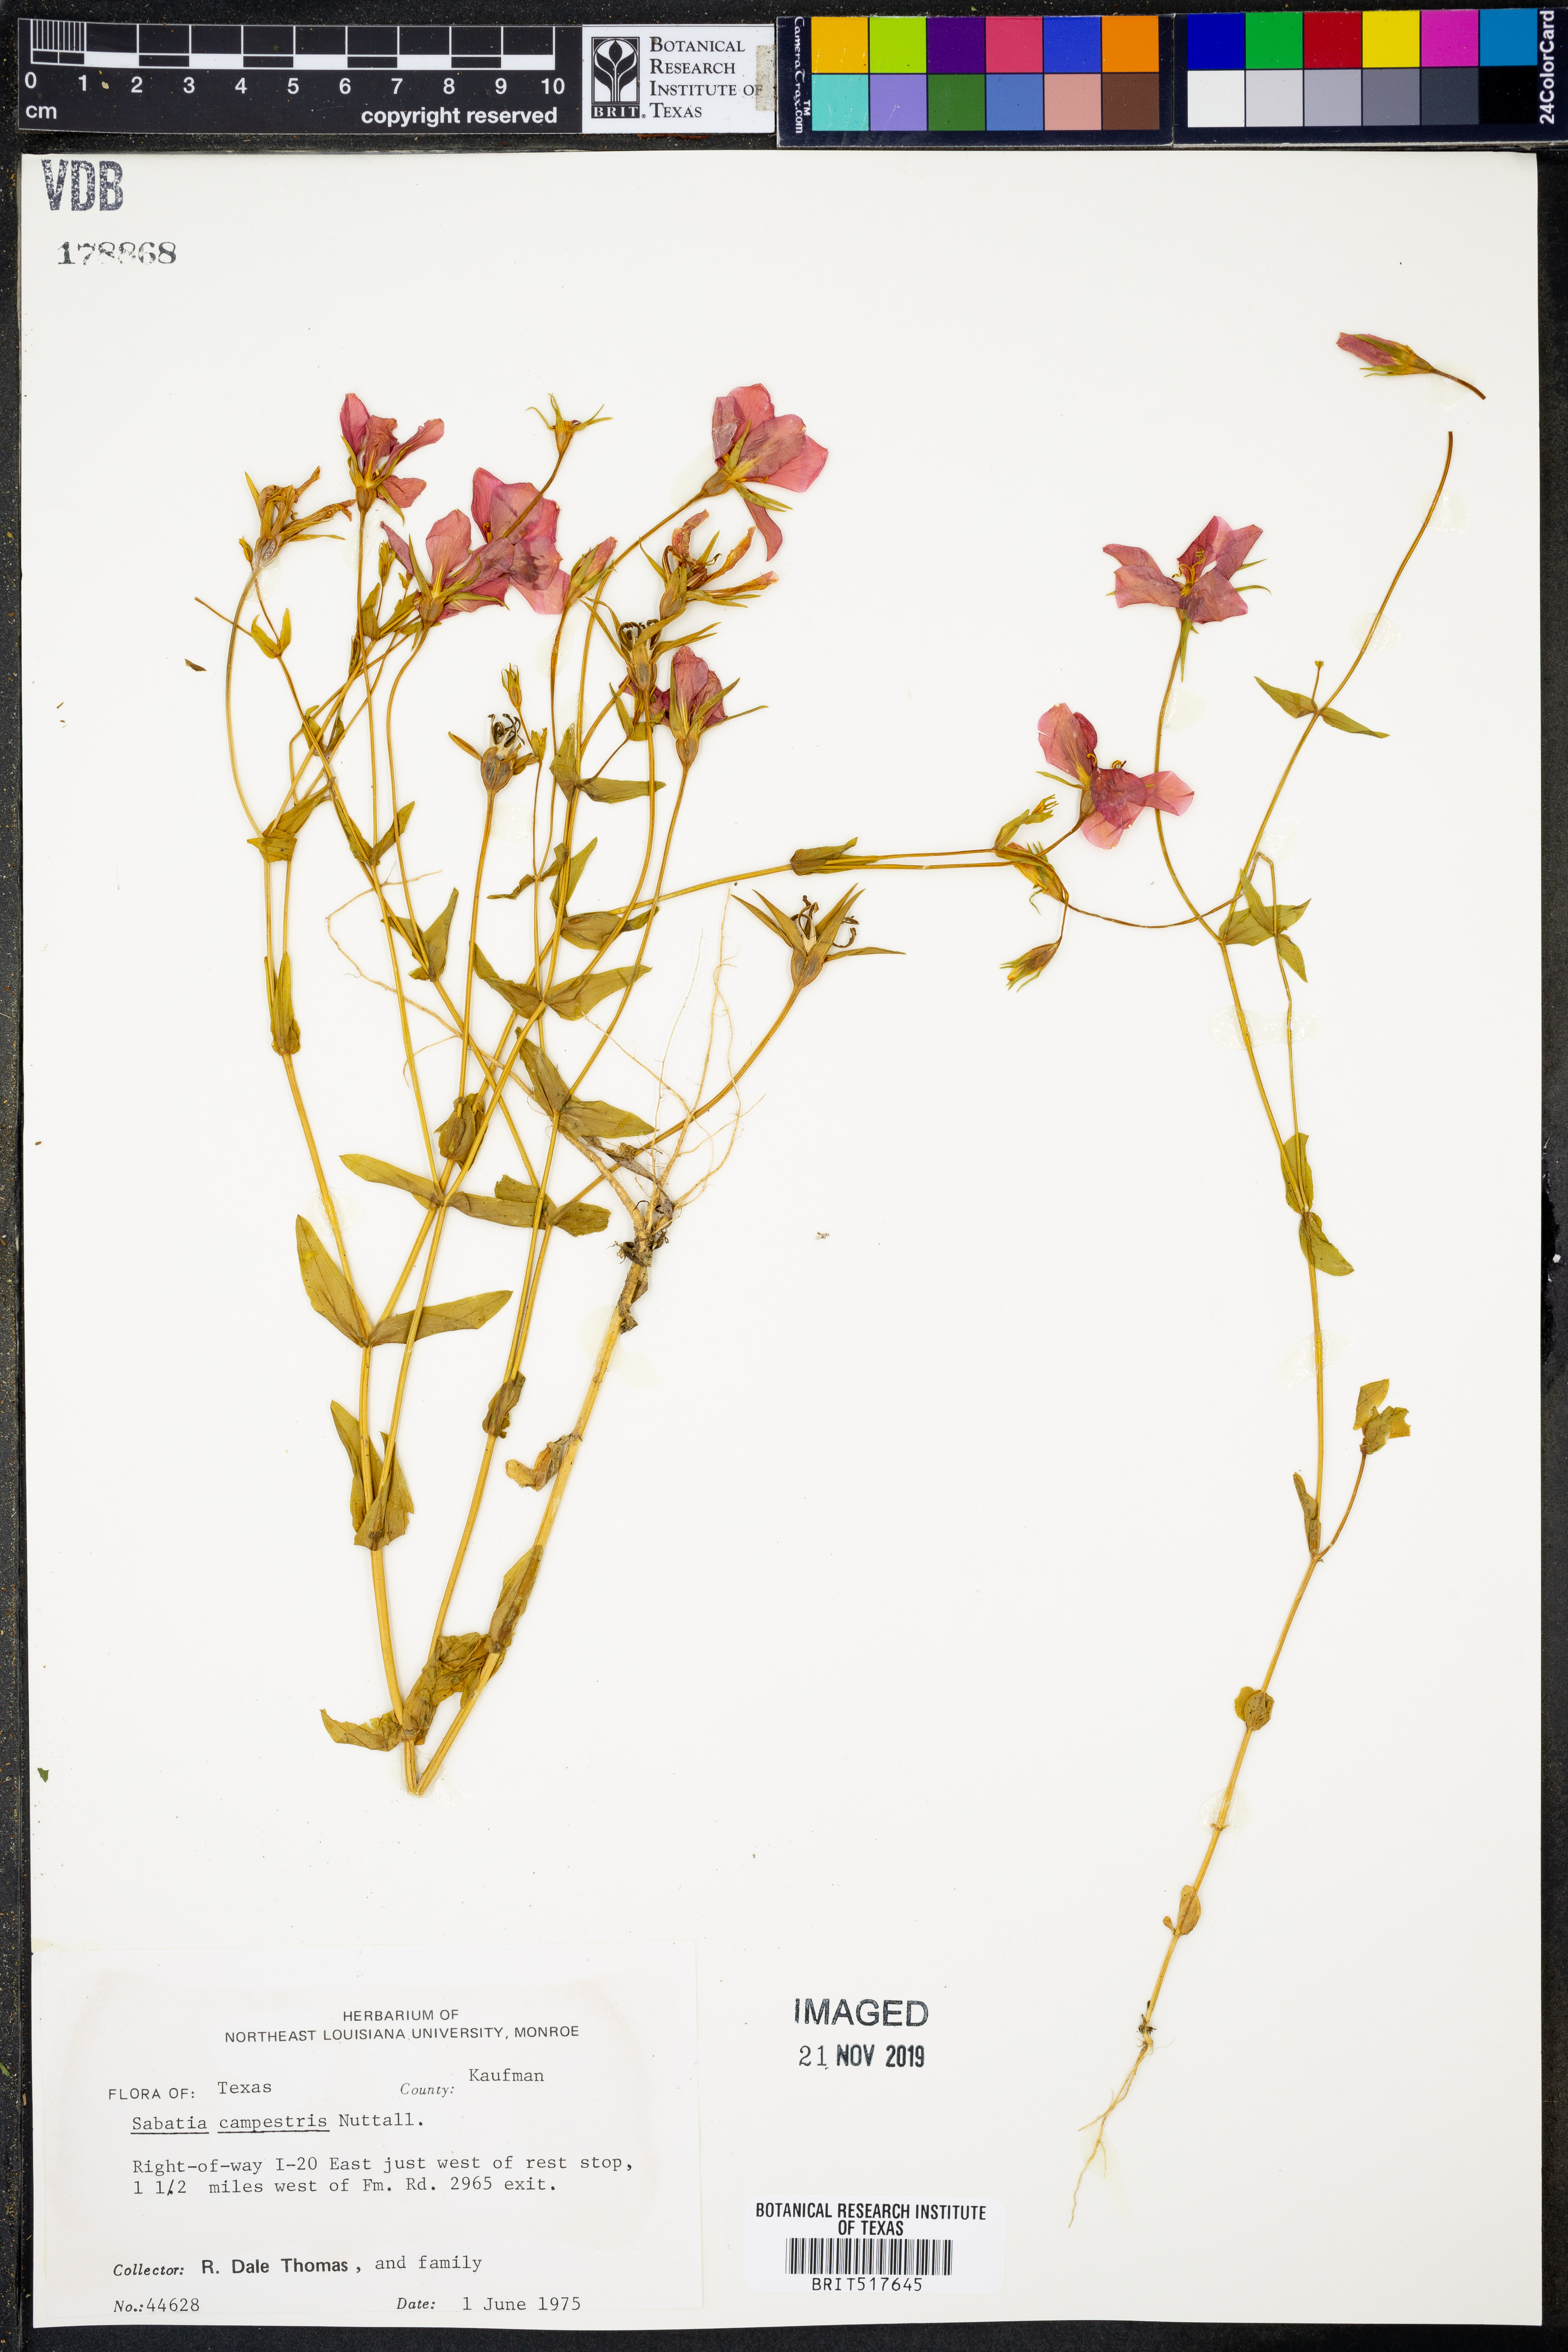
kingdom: Plantae
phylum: Tracheophyta
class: Magnoliopsida
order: Gentianales
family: Gentianaceae
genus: Sabatia
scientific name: Sabatia campestris
